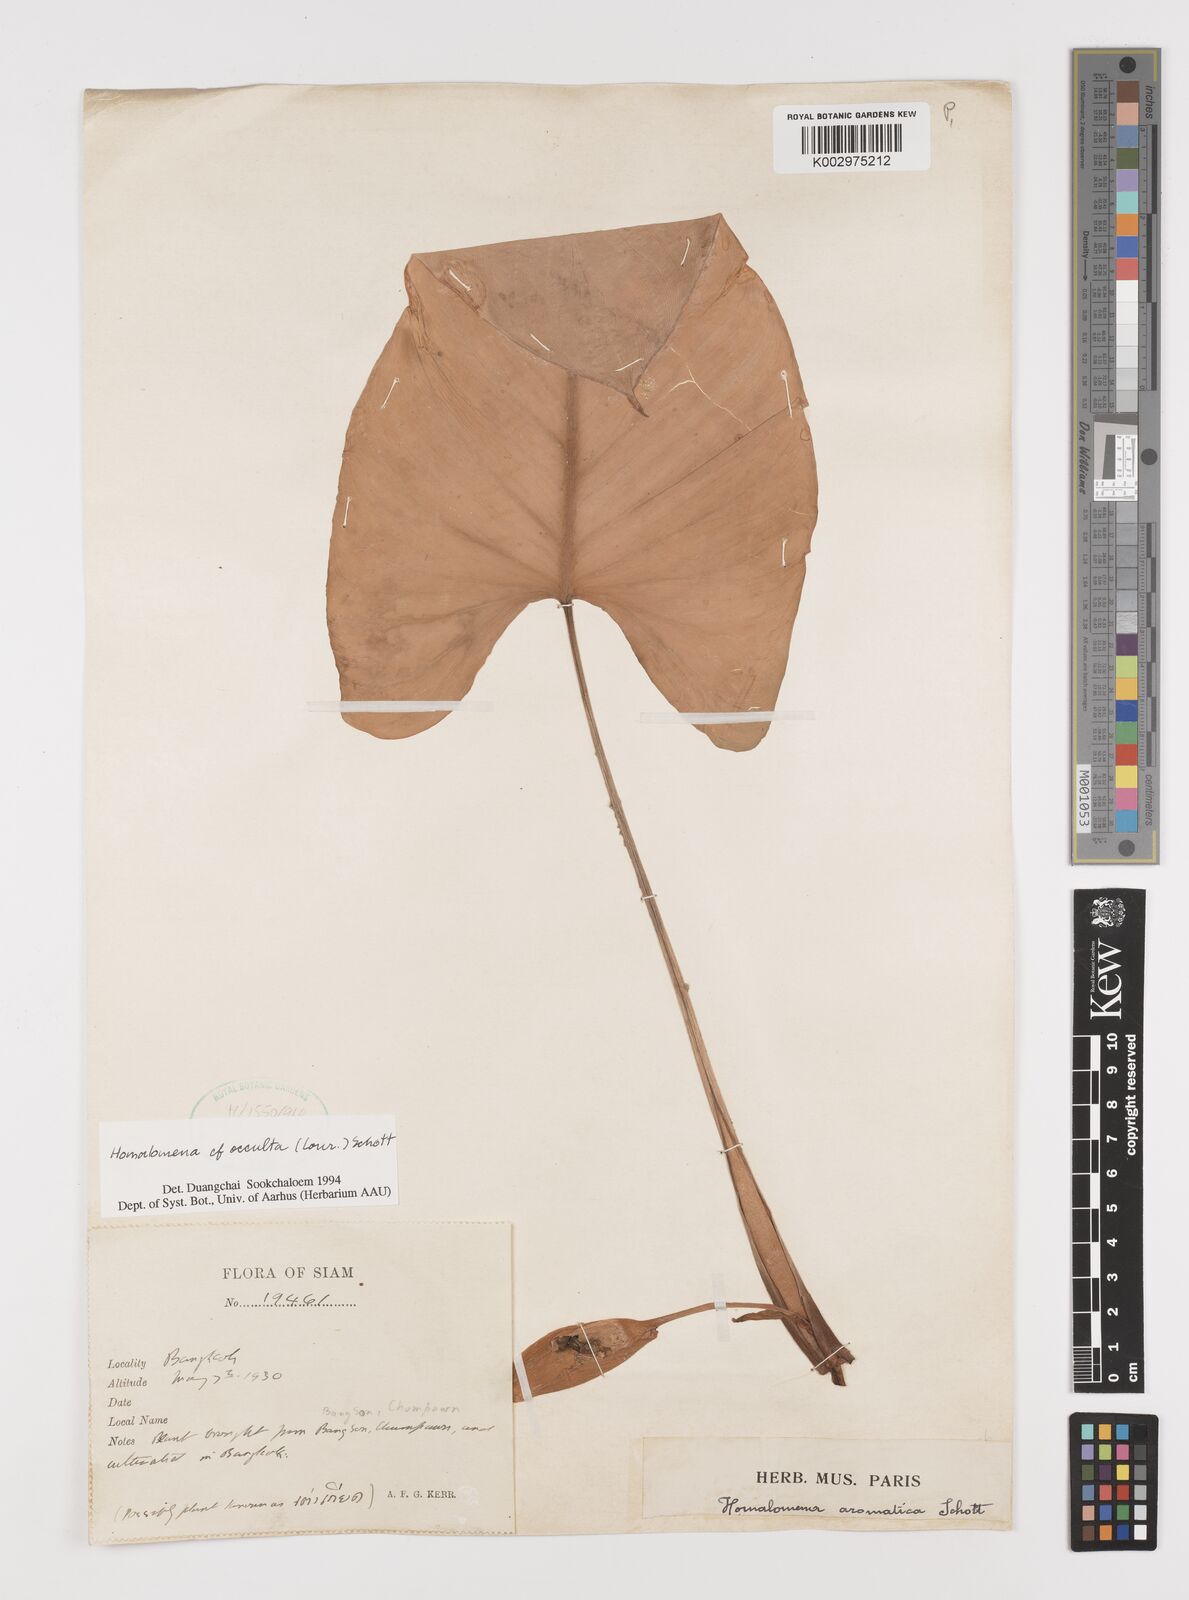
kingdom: Plantae
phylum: Tracheophyta
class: Liliopsida
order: Alismatales
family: Araceae
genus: Homalomena
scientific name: Homalomena aromatica
